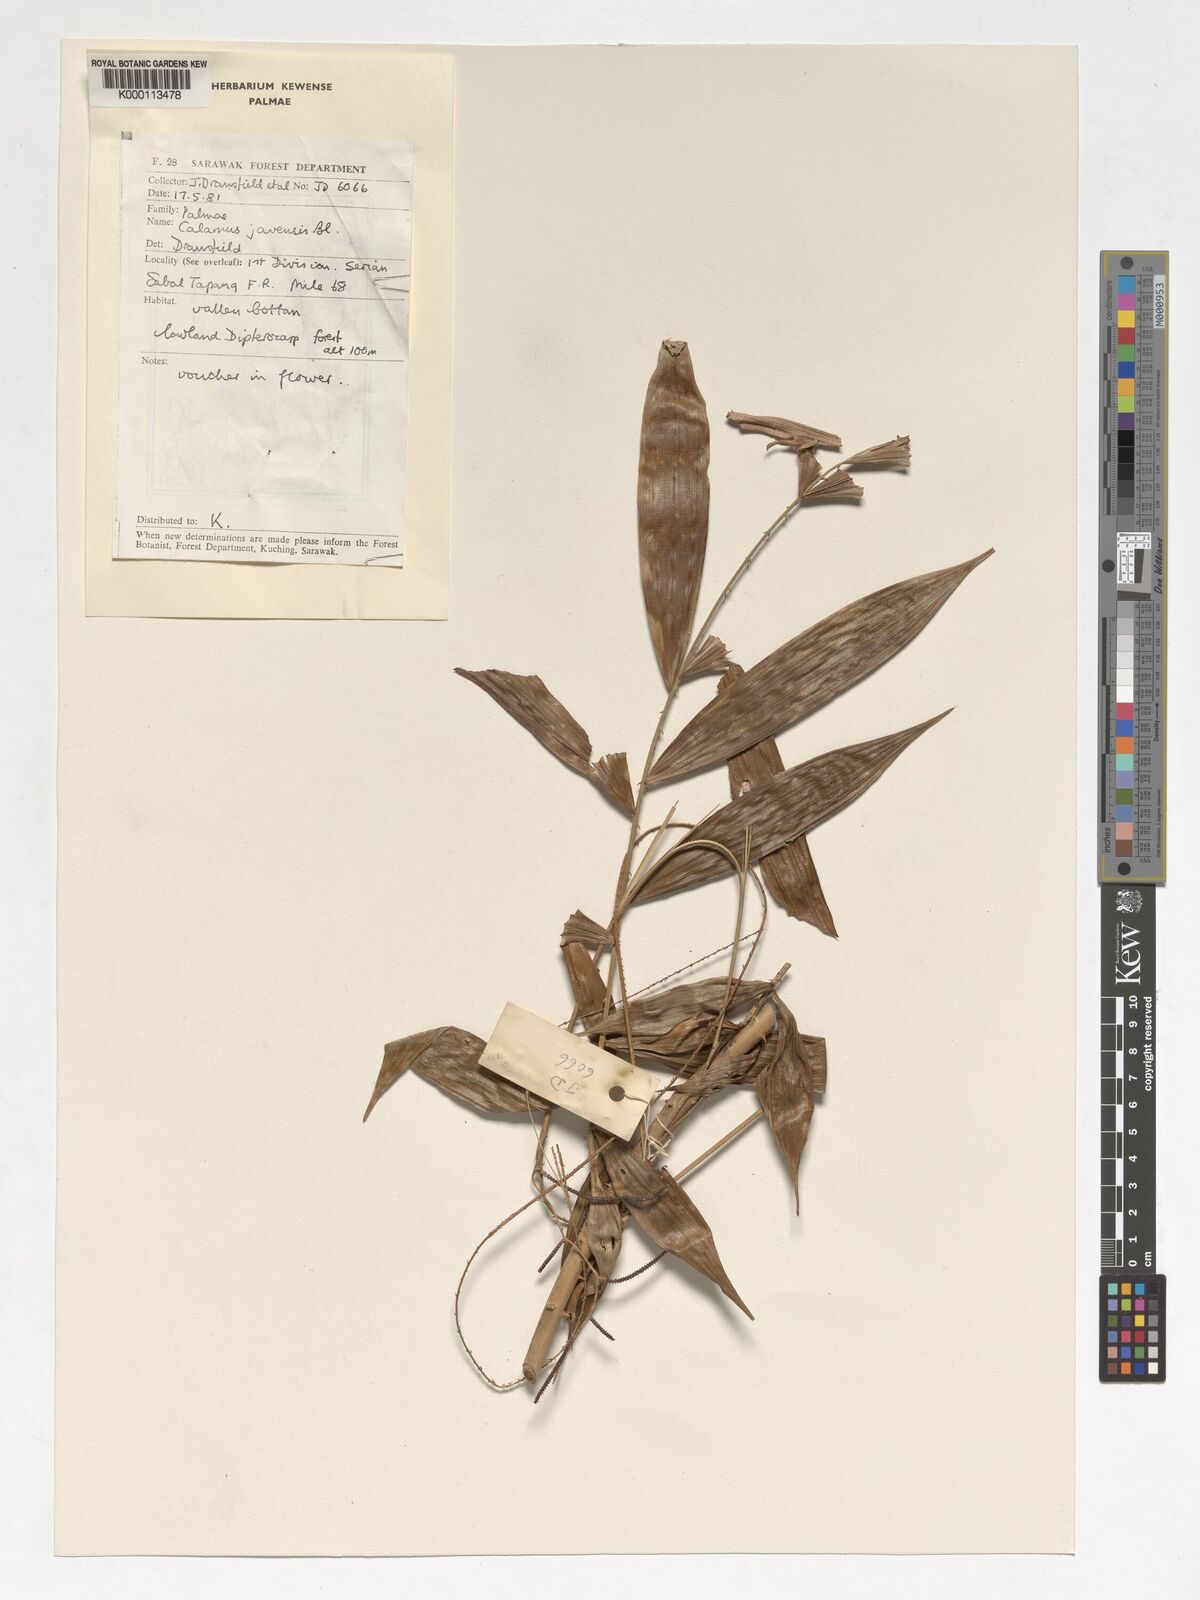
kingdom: Plantae
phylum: Tracheophyta
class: Liliopsida
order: Arecales
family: Arecaceae
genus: Calamus
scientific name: Calamus javensis
